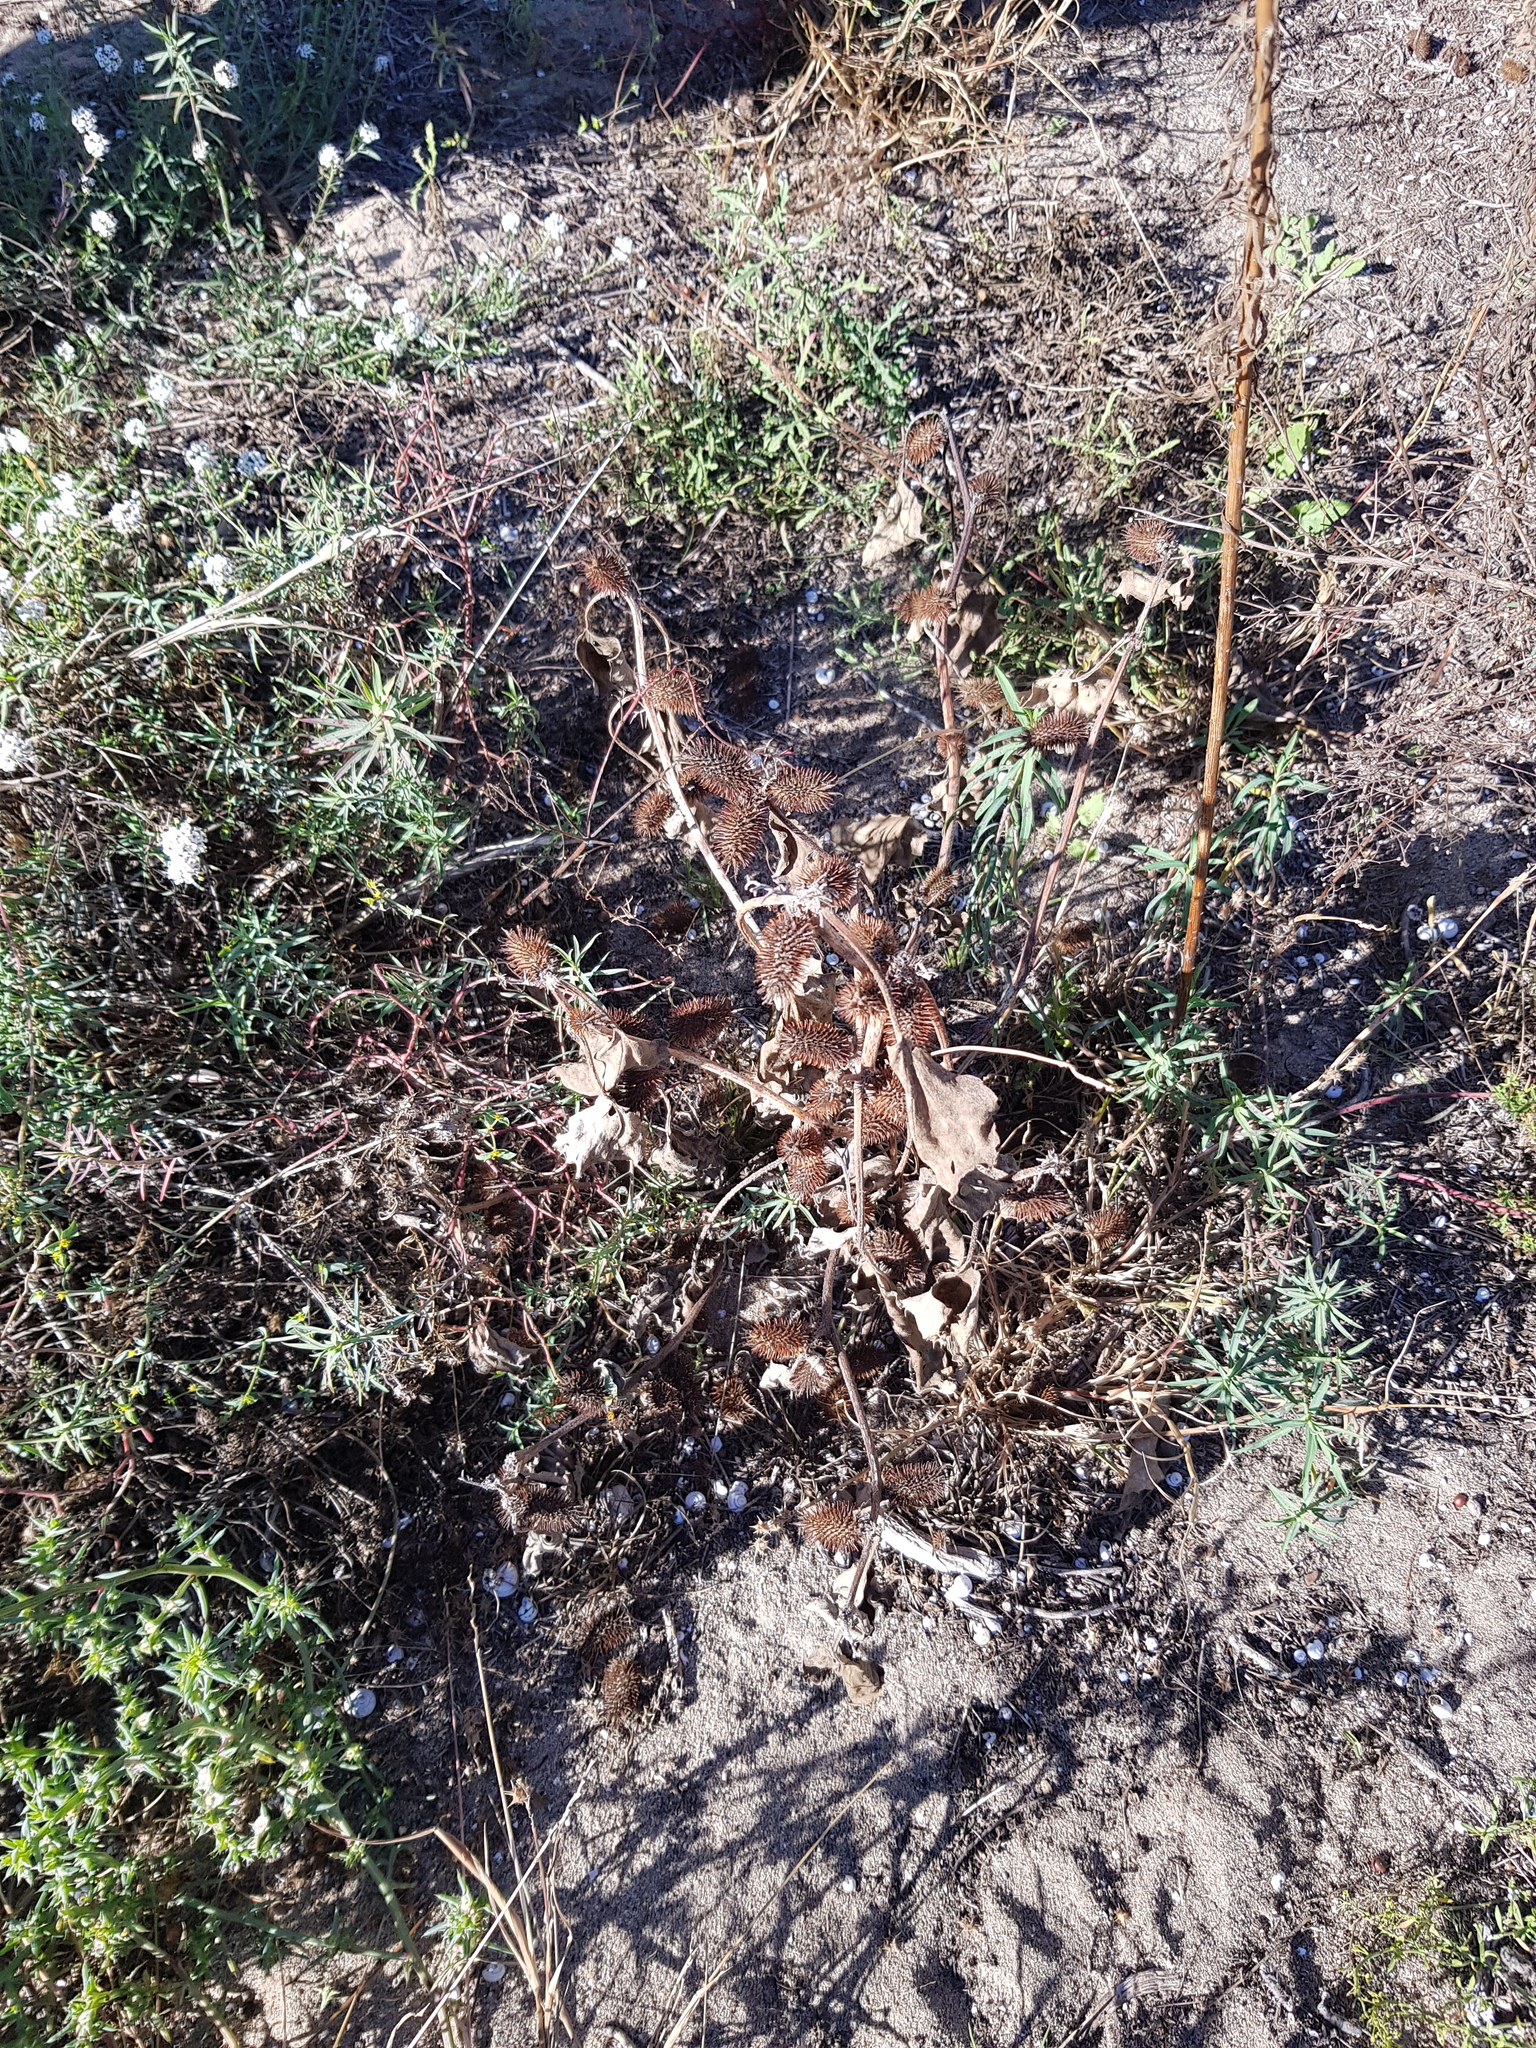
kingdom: Plantae
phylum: Tracheophyta
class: Magnoliopsida
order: Asterales
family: Asteraceae
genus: Xanthium
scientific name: Xanthium orientale
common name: Californian burr
